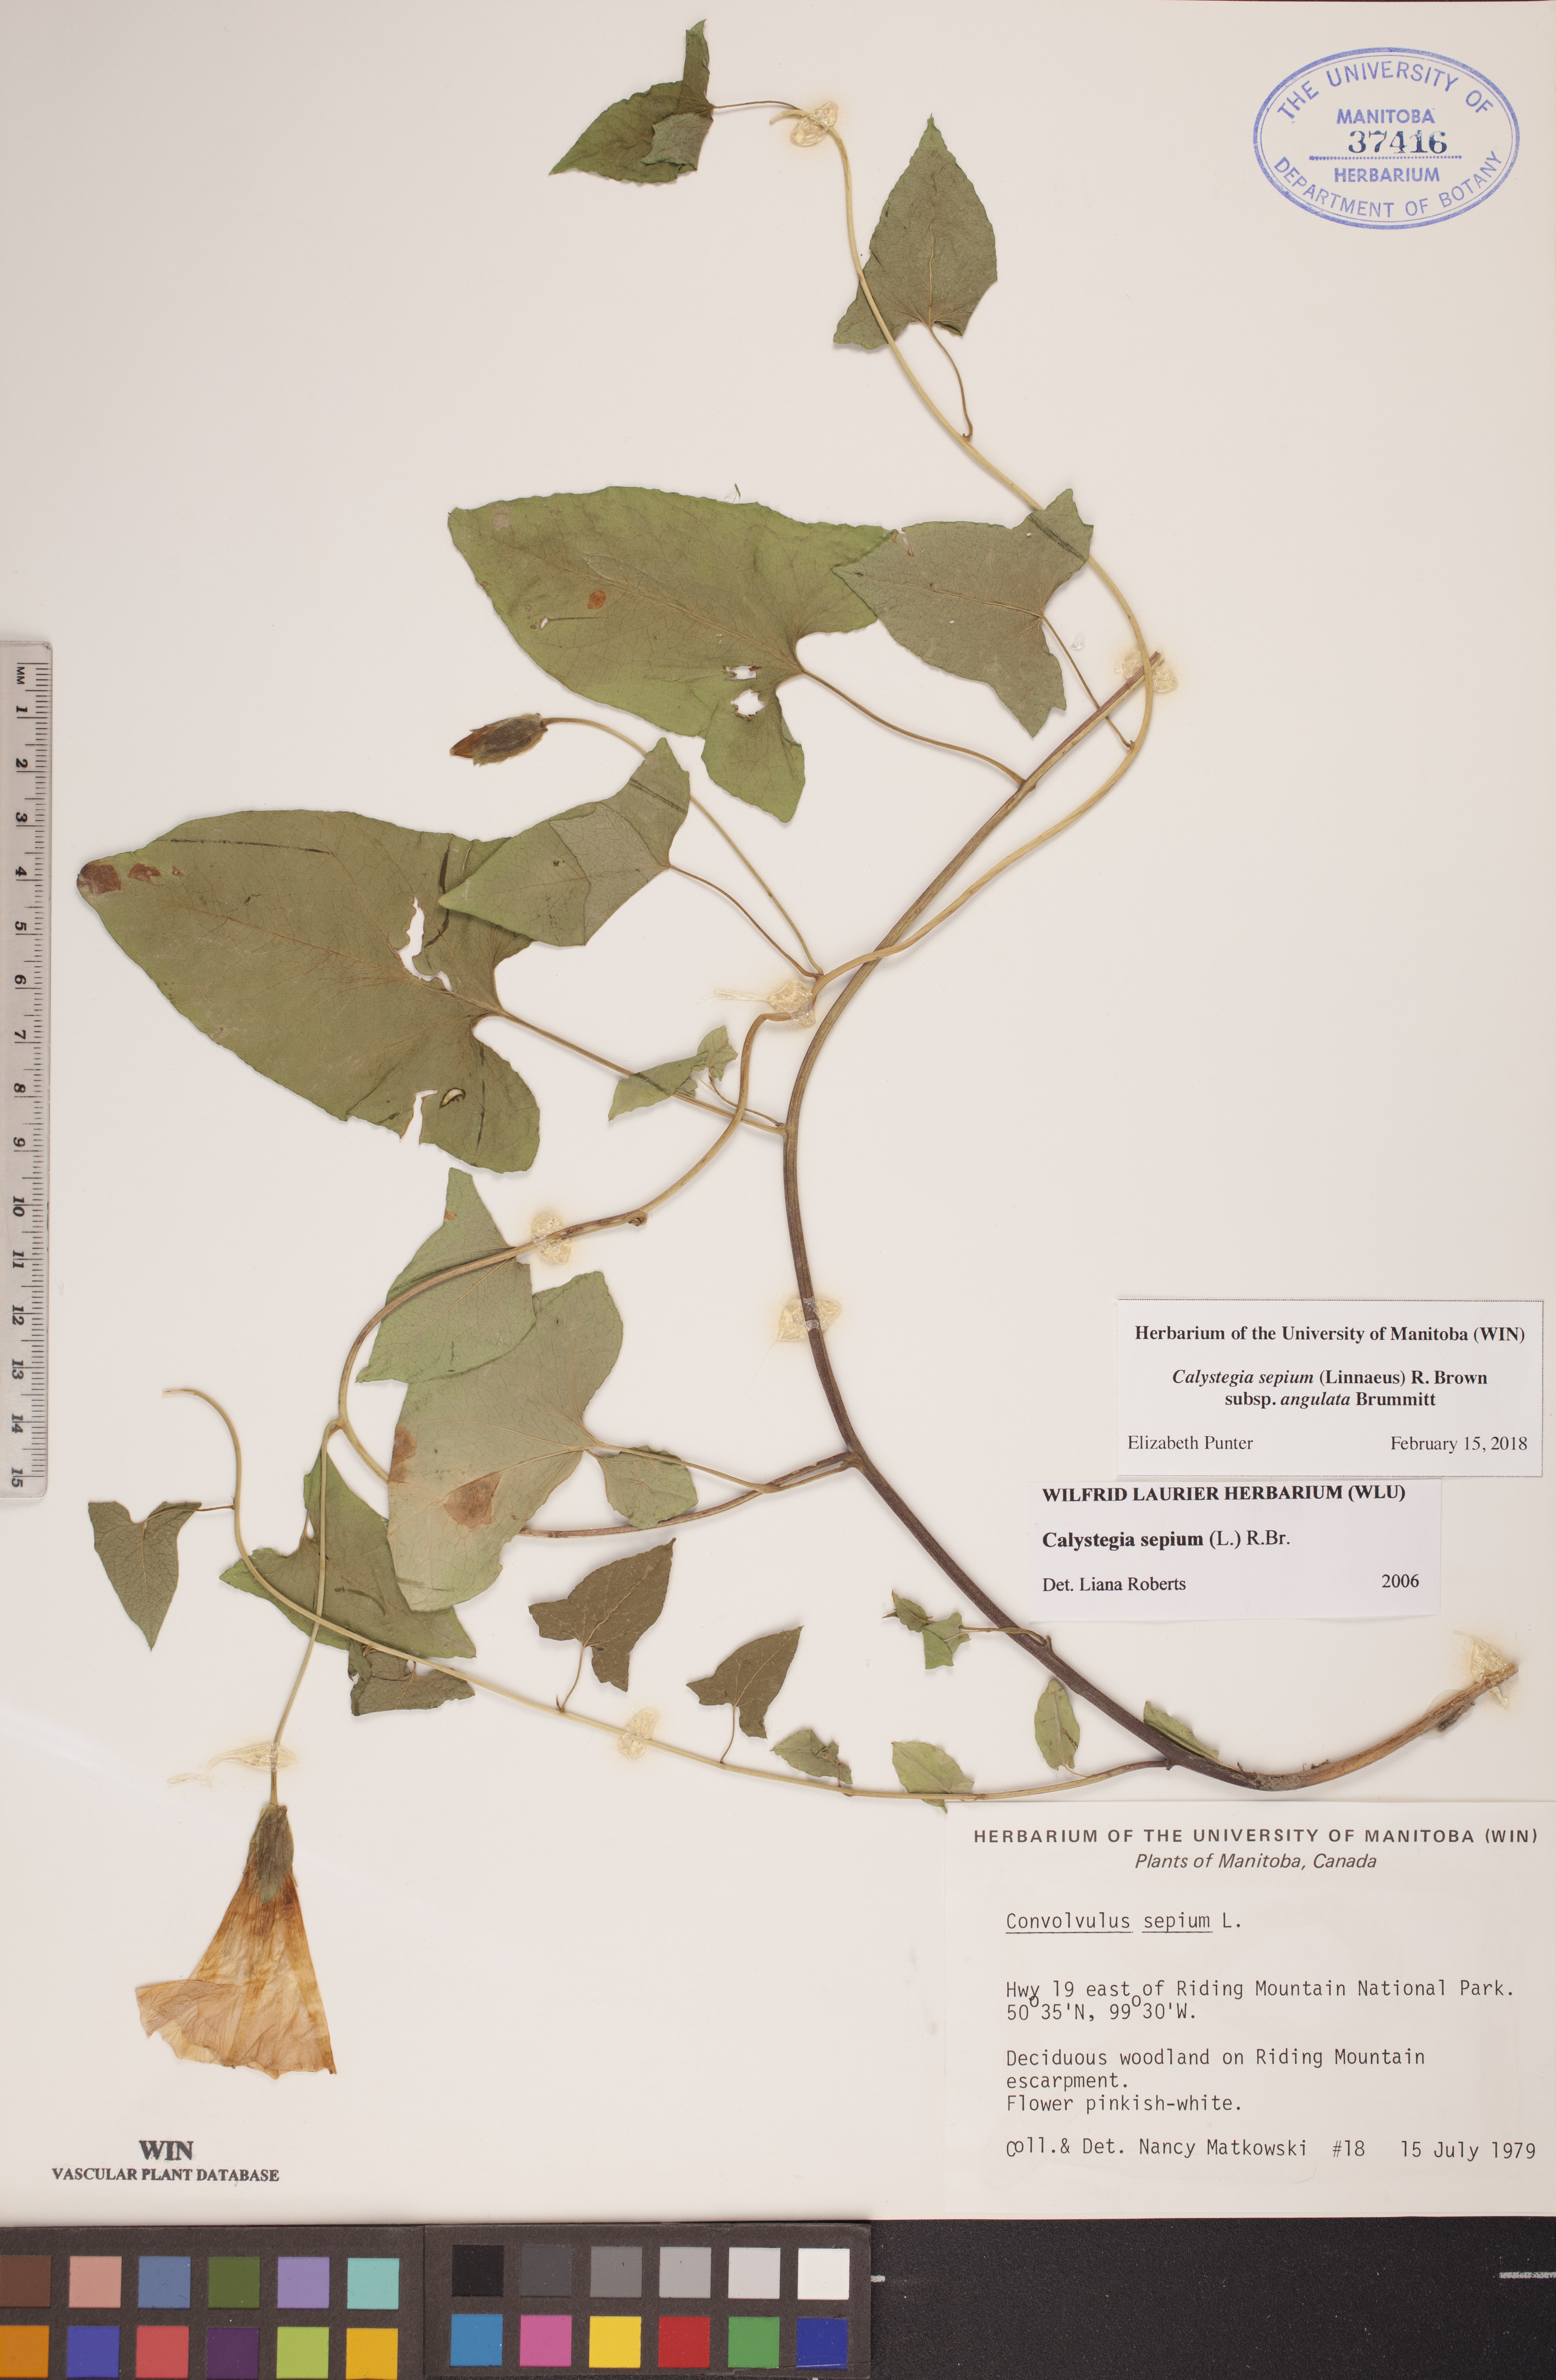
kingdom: Plantae
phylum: Tracheophyta
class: Magnoliopsida
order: Solanales
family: Convolvulaceae
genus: Calystegia
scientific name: Calystegia sepium
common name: Hedge bindweed
